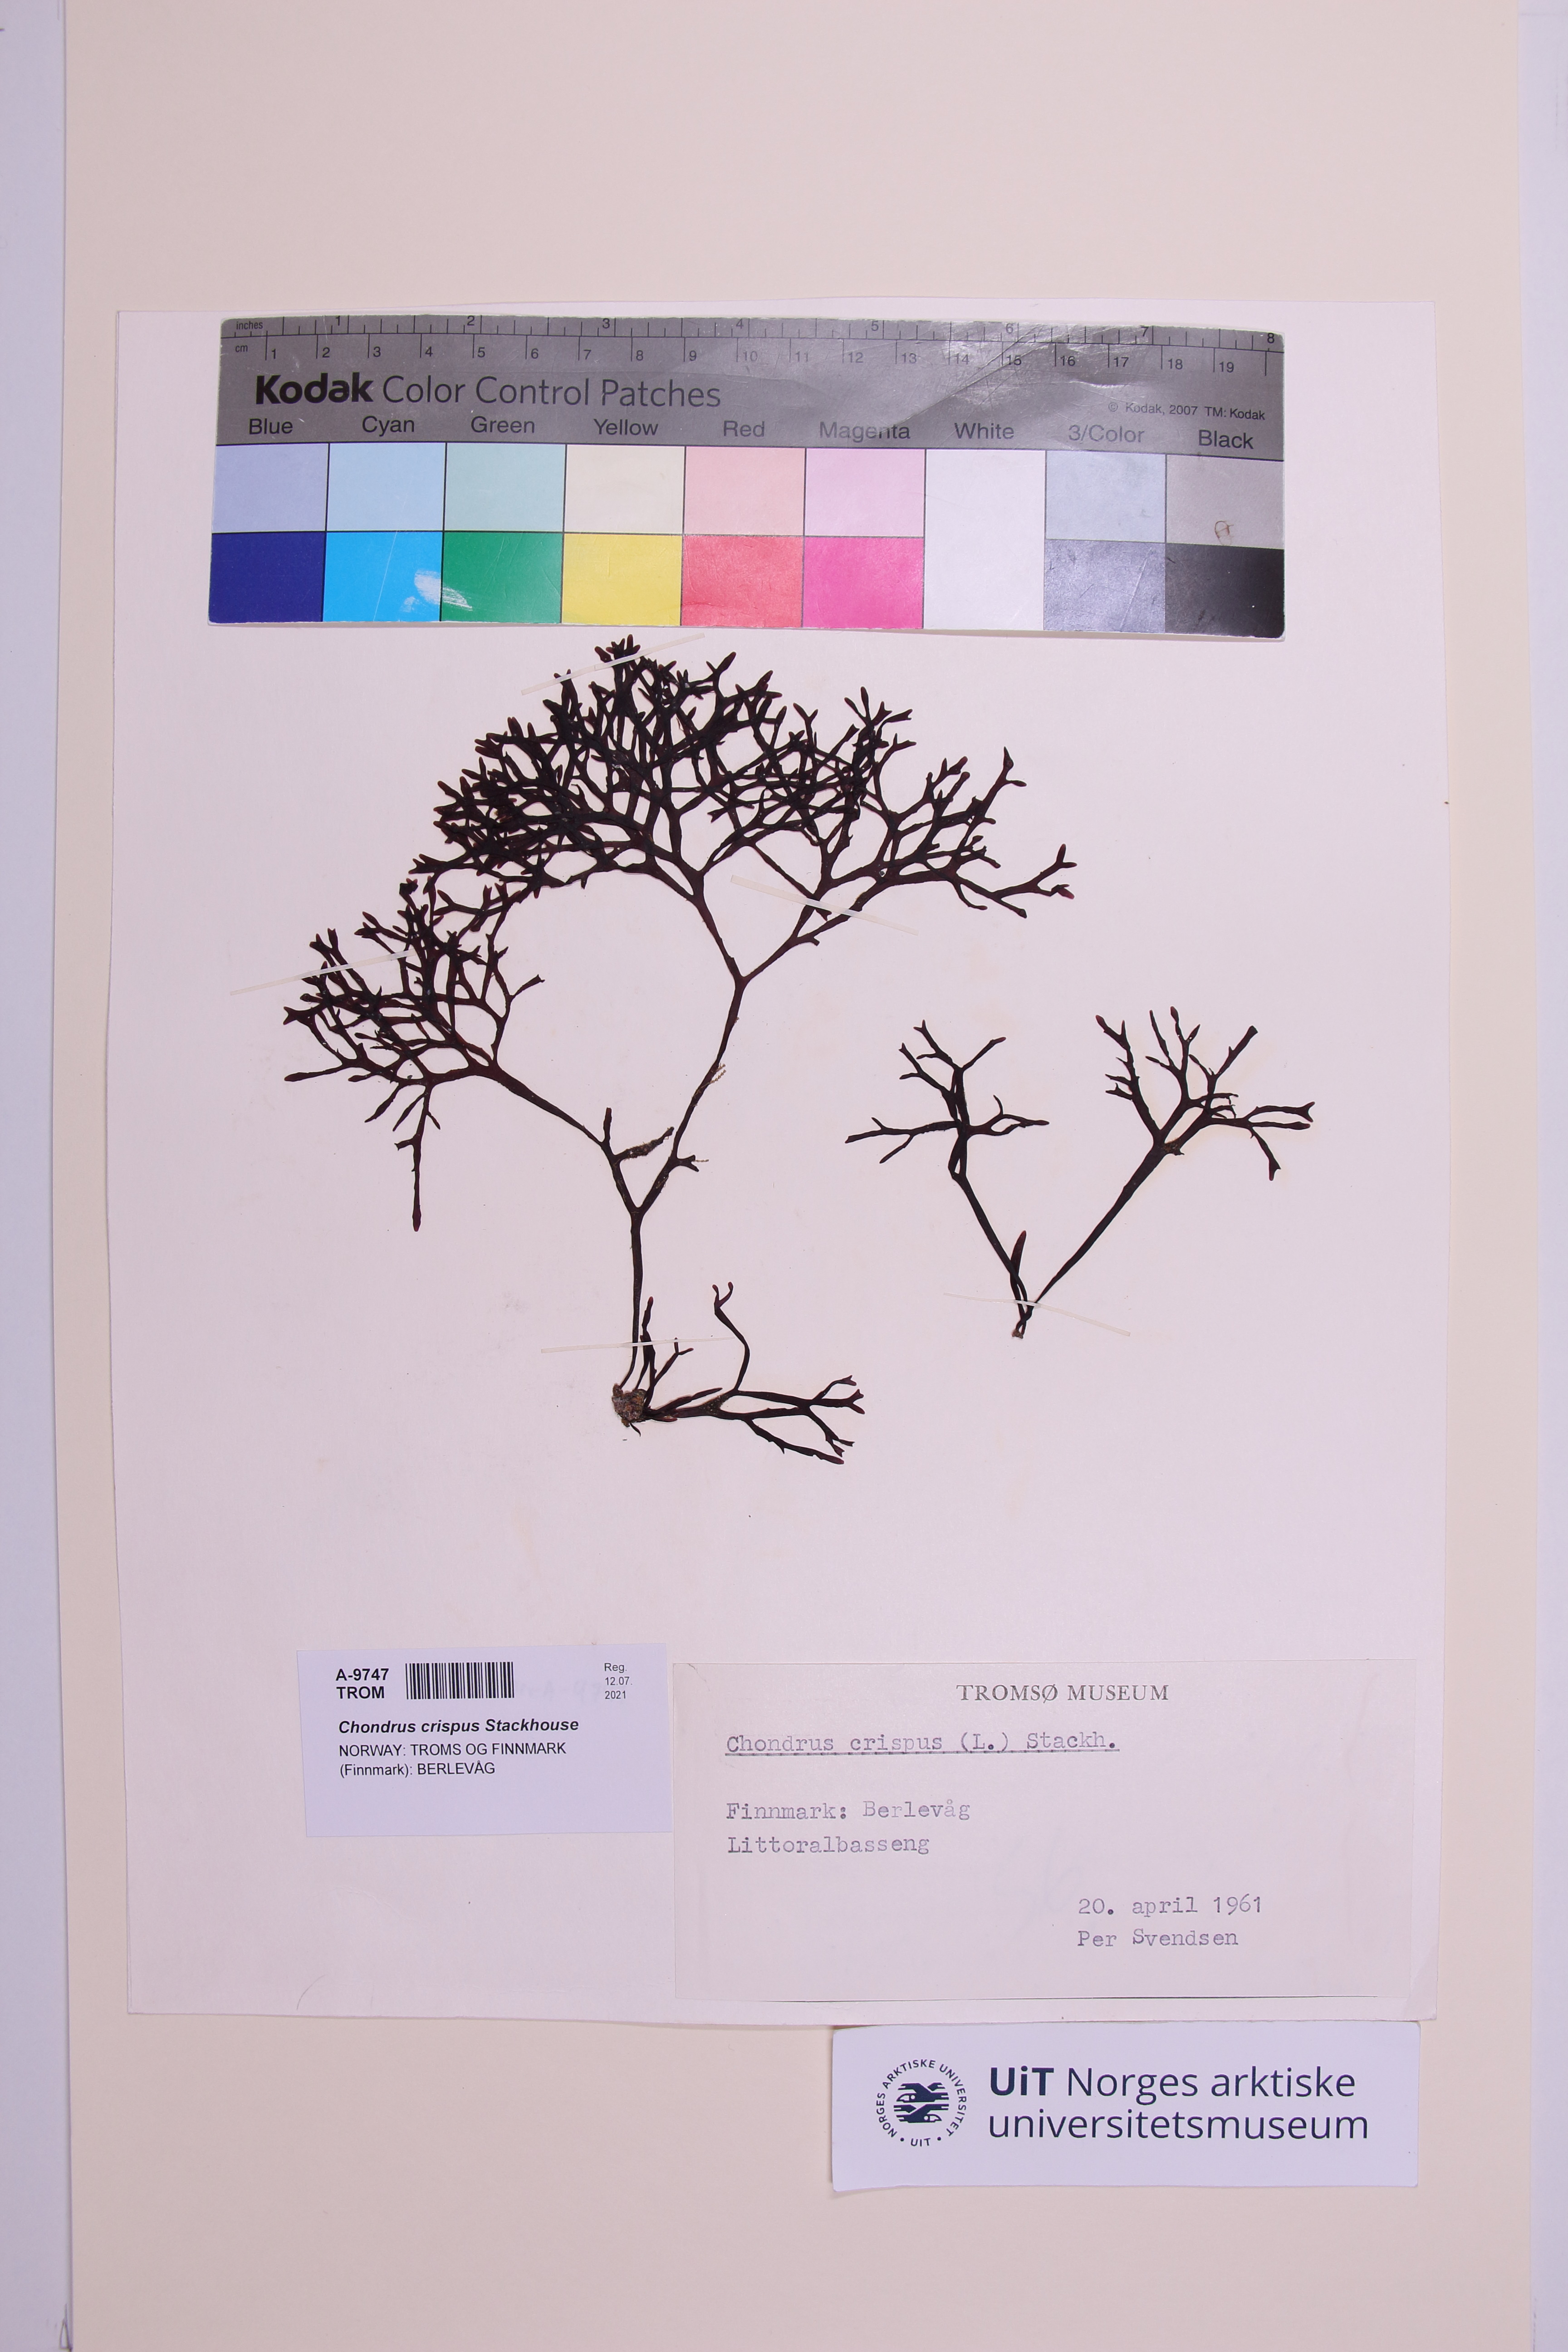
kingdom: Plantae
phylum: Rhodophyta
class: Florideophyceae
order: Gigartinales
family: Gigartinaceae
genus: Chondrus
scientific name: Chondrus crispus
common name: Carrageen
